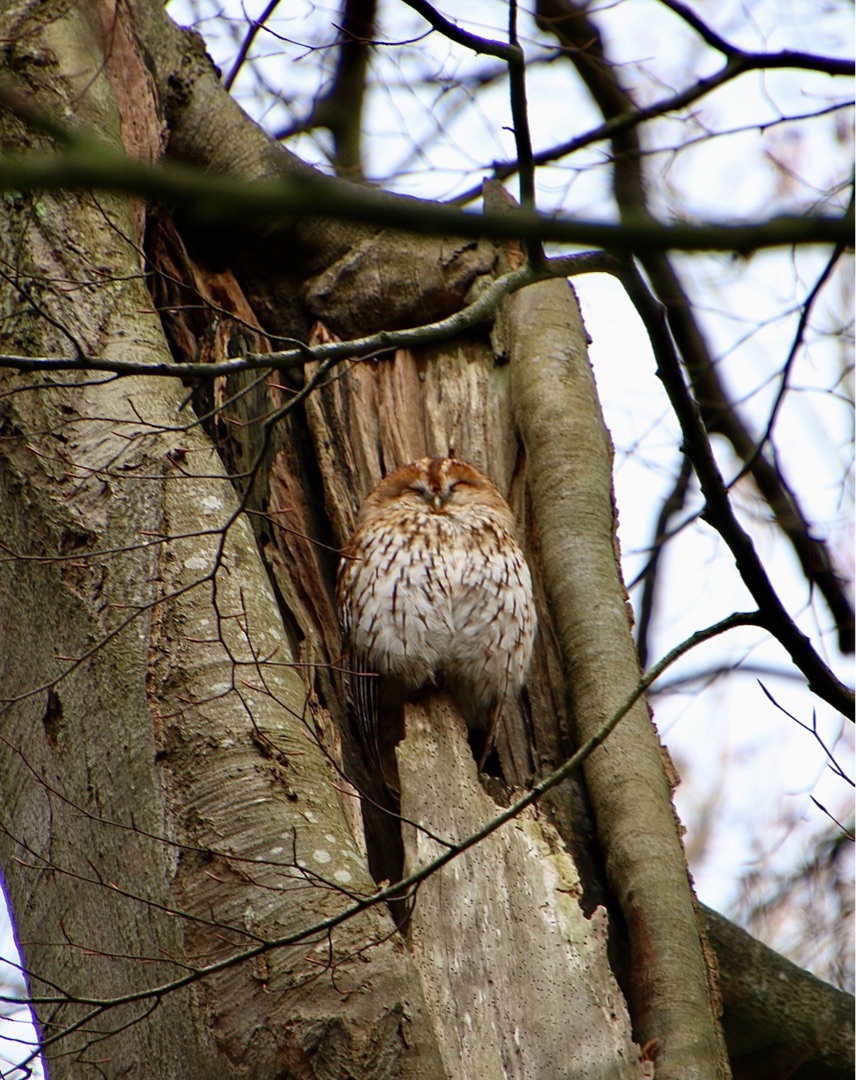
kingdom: Animalia
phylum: Chordata
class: Aves
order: Strigiformes
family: Strigidae
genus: Strix
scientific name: Strix aluco
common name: Natugle
